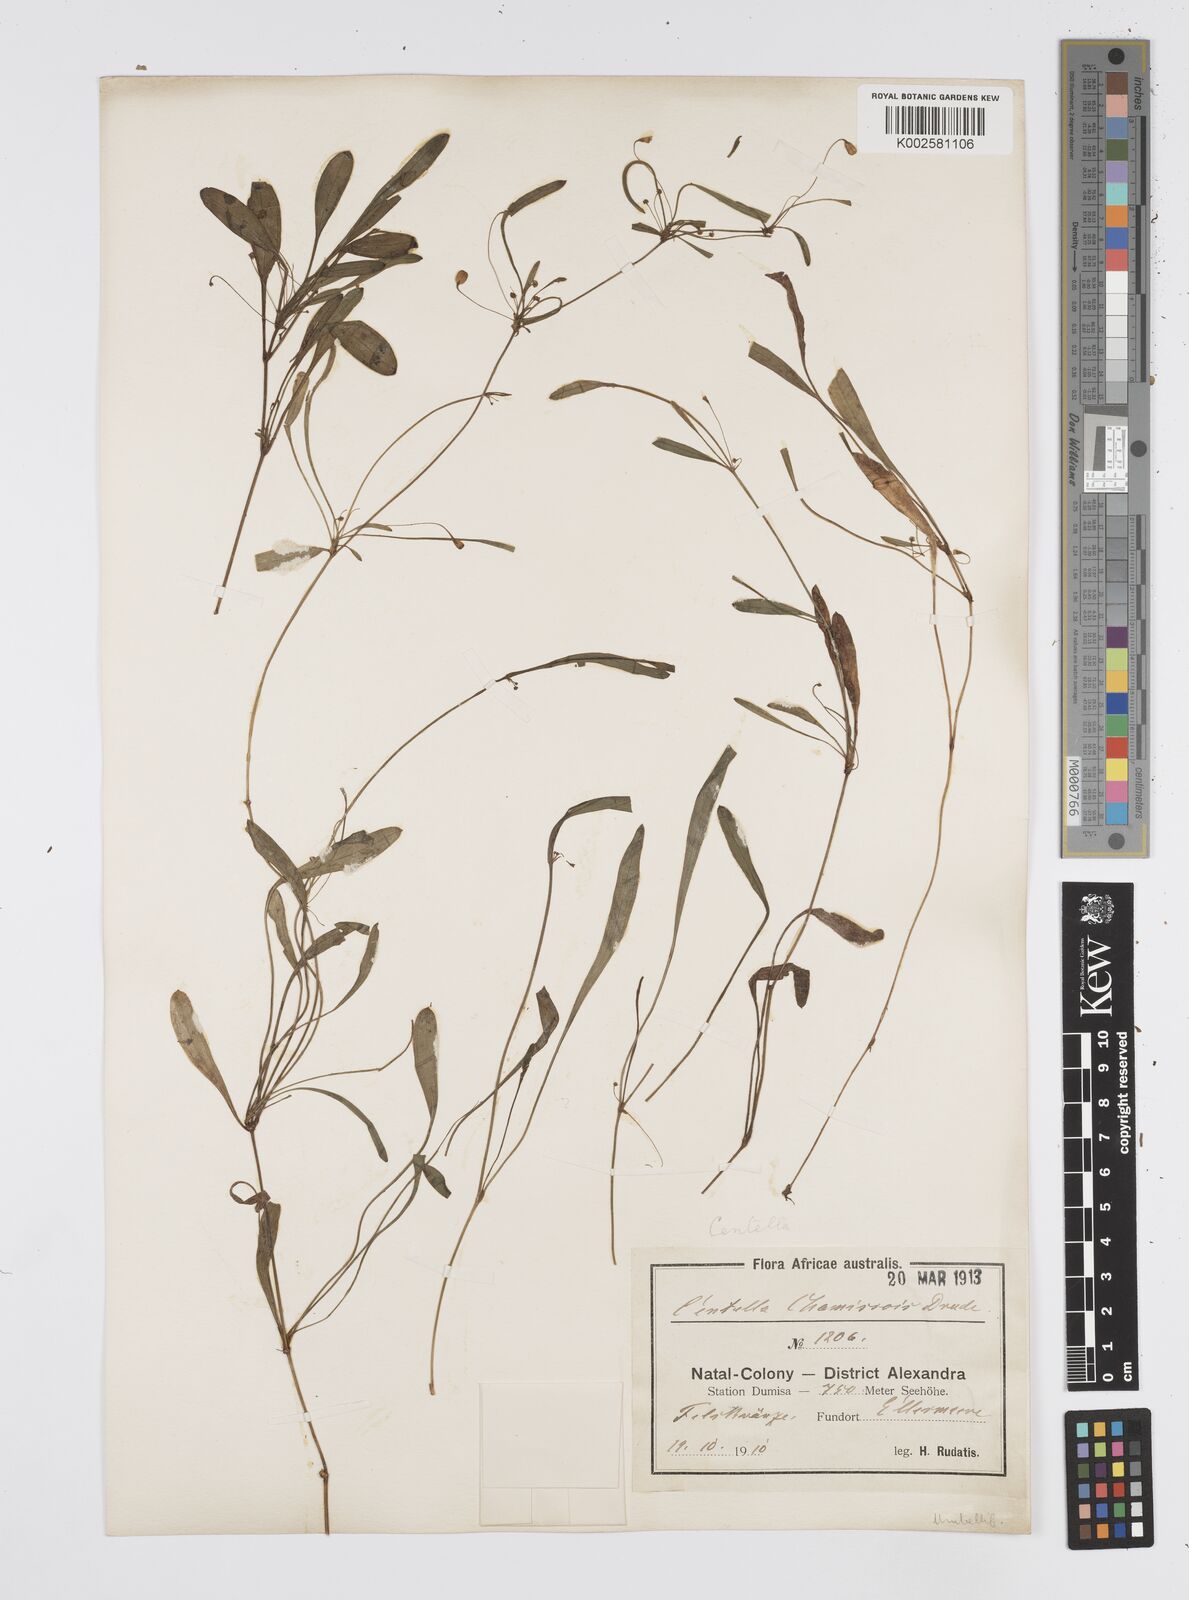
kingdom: Plantae
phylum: Tracheophyta
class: Magnoliopsida
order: Apiales
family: Apiaceae
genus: Centella
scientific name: Centella glabrata
